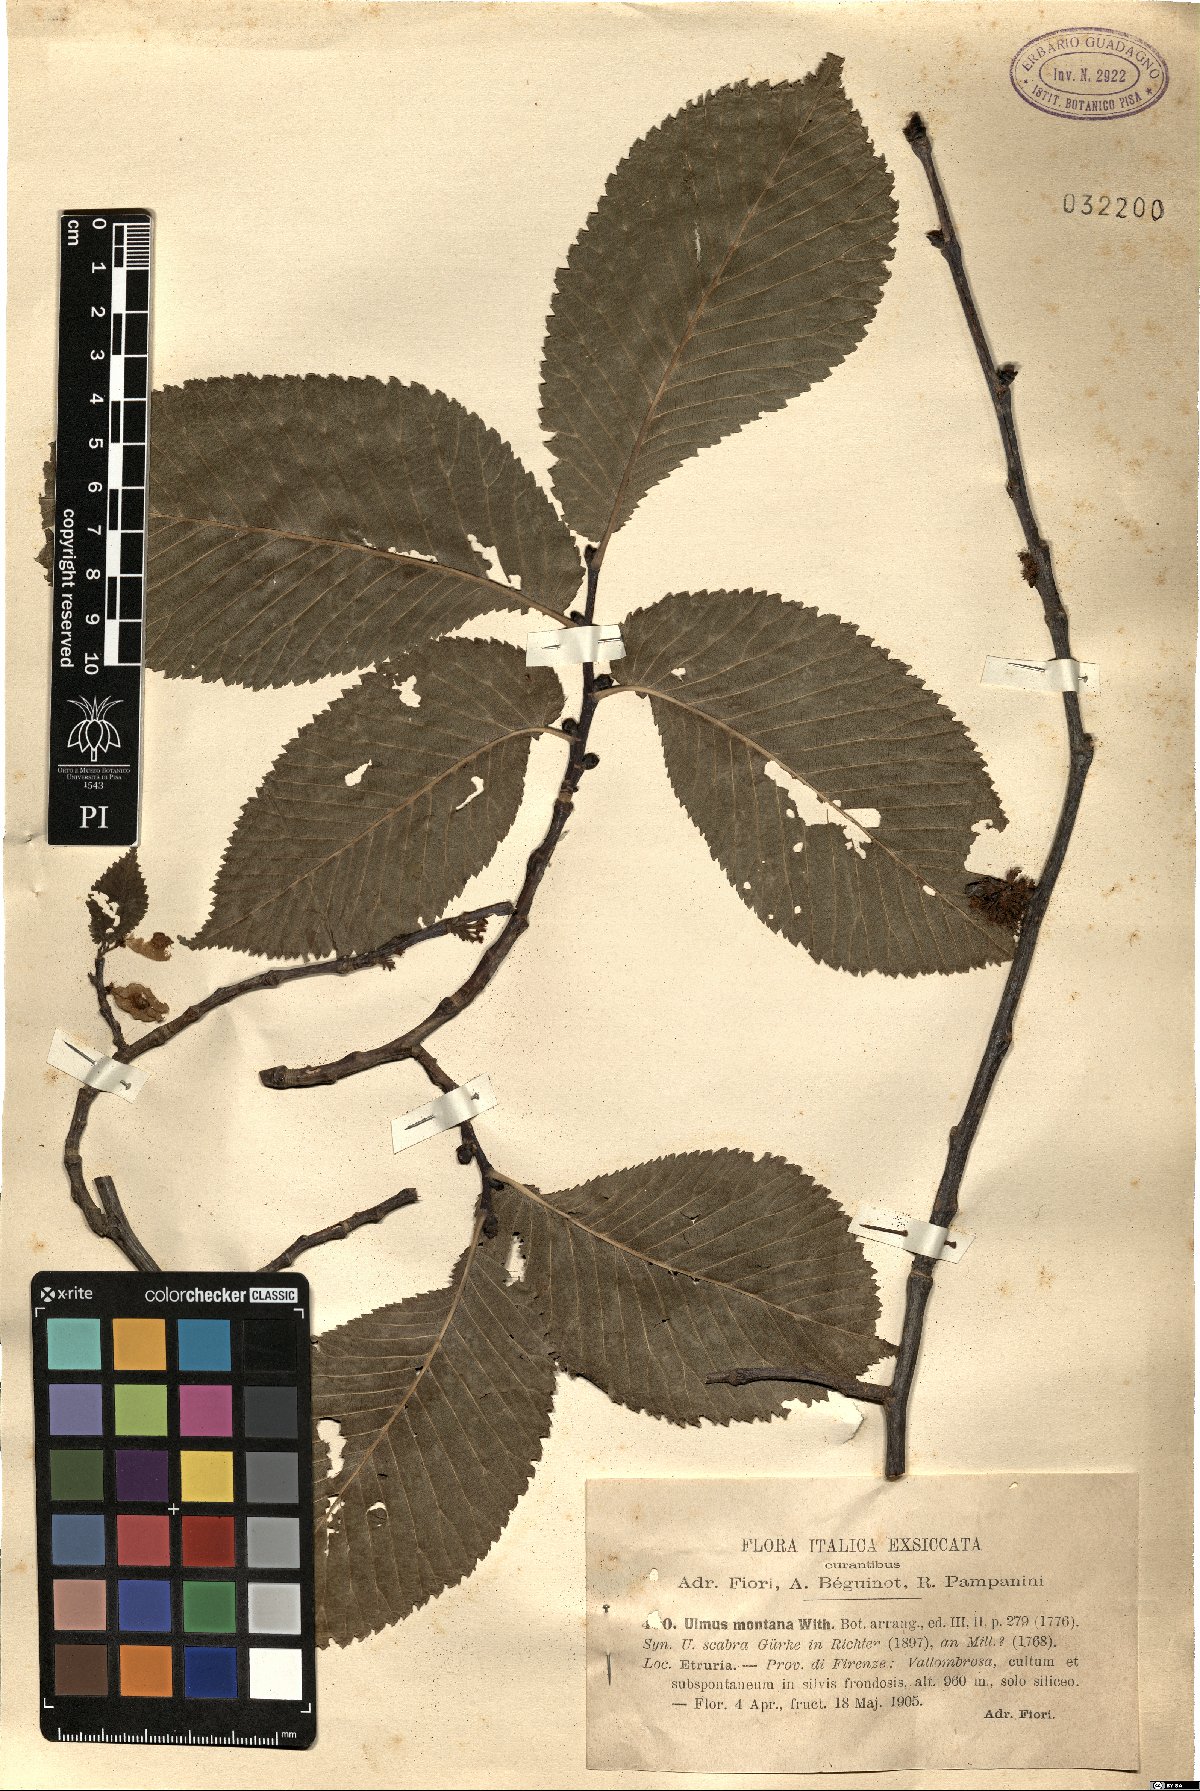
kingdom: Plantae
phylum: Tracheophyta
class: Magnoliopsida
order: Rosales
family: Ulmaceae
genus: Ulmus
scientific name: Ulmus glabra
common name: Wych elm
